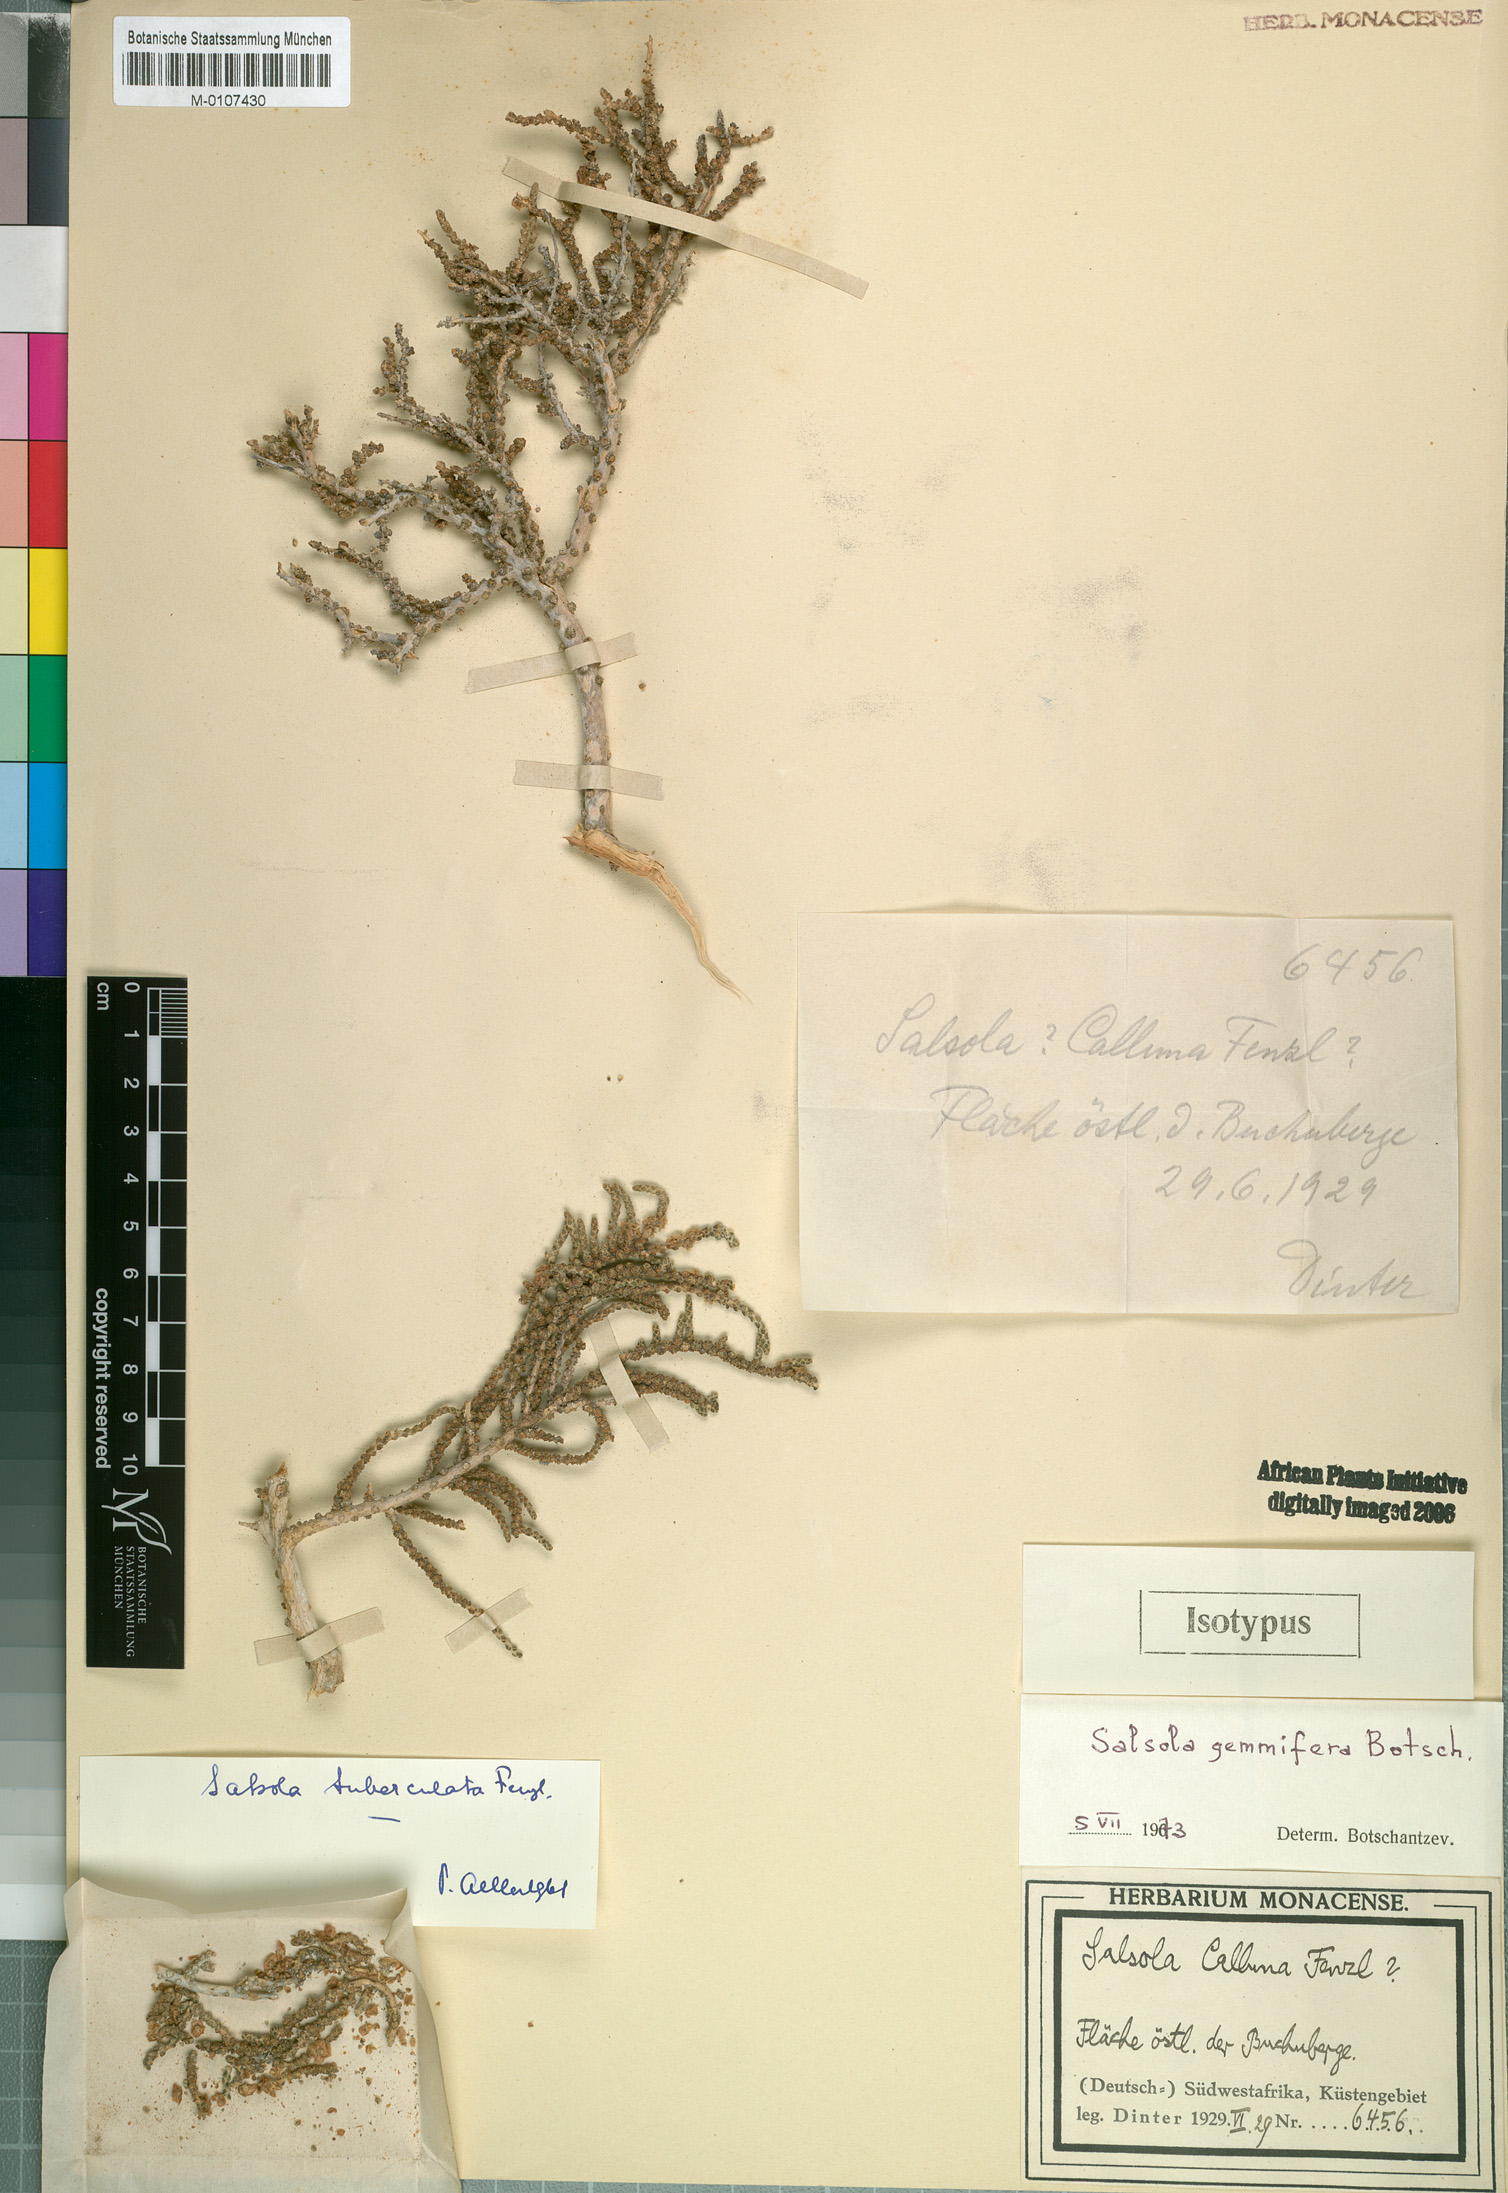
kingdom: Plantae
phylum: Tracheophyta
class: Magnoliopsida
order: Caryophyllales
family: Amaranthaceae
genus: Caroxylon
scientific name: Caroxylon gemmiferum
